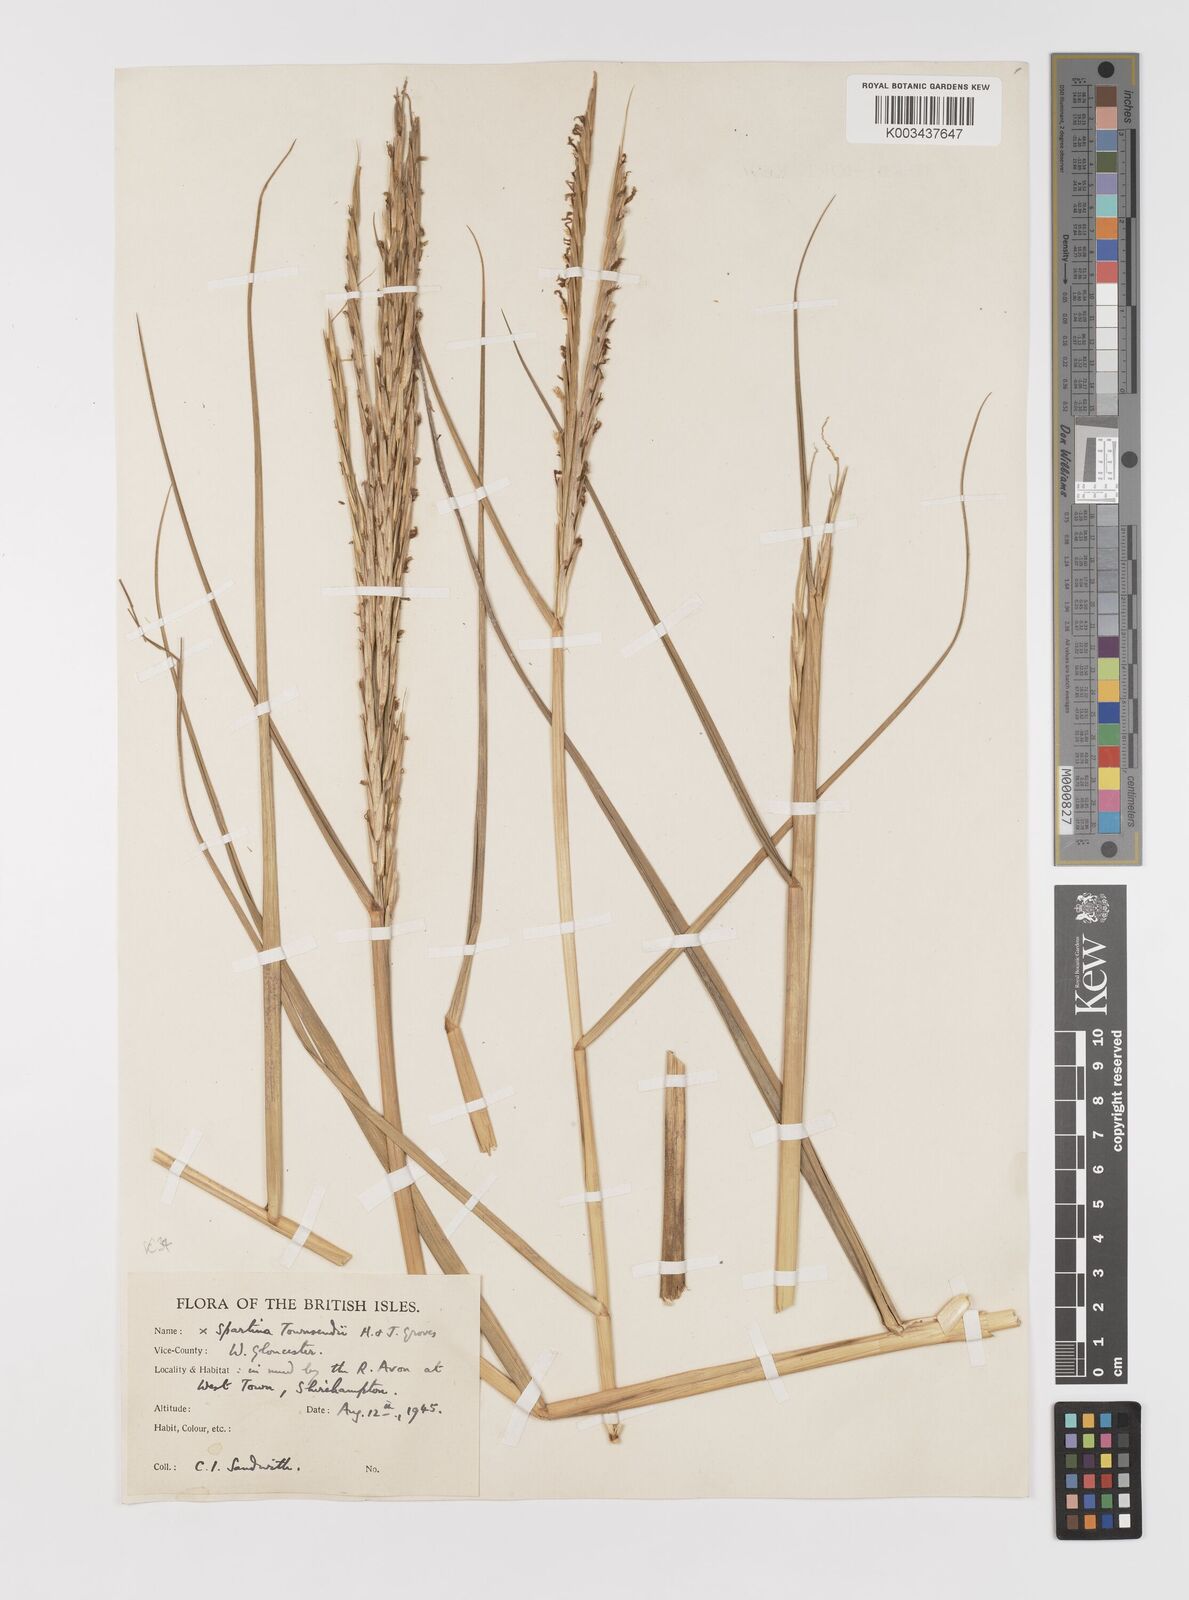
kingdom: Plantae
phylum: Tracheophyta
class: Liliopsida
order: Poales
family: Poaceae
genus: Sporobolus
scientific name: Sporobolus anglicus
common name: English cordgrass
